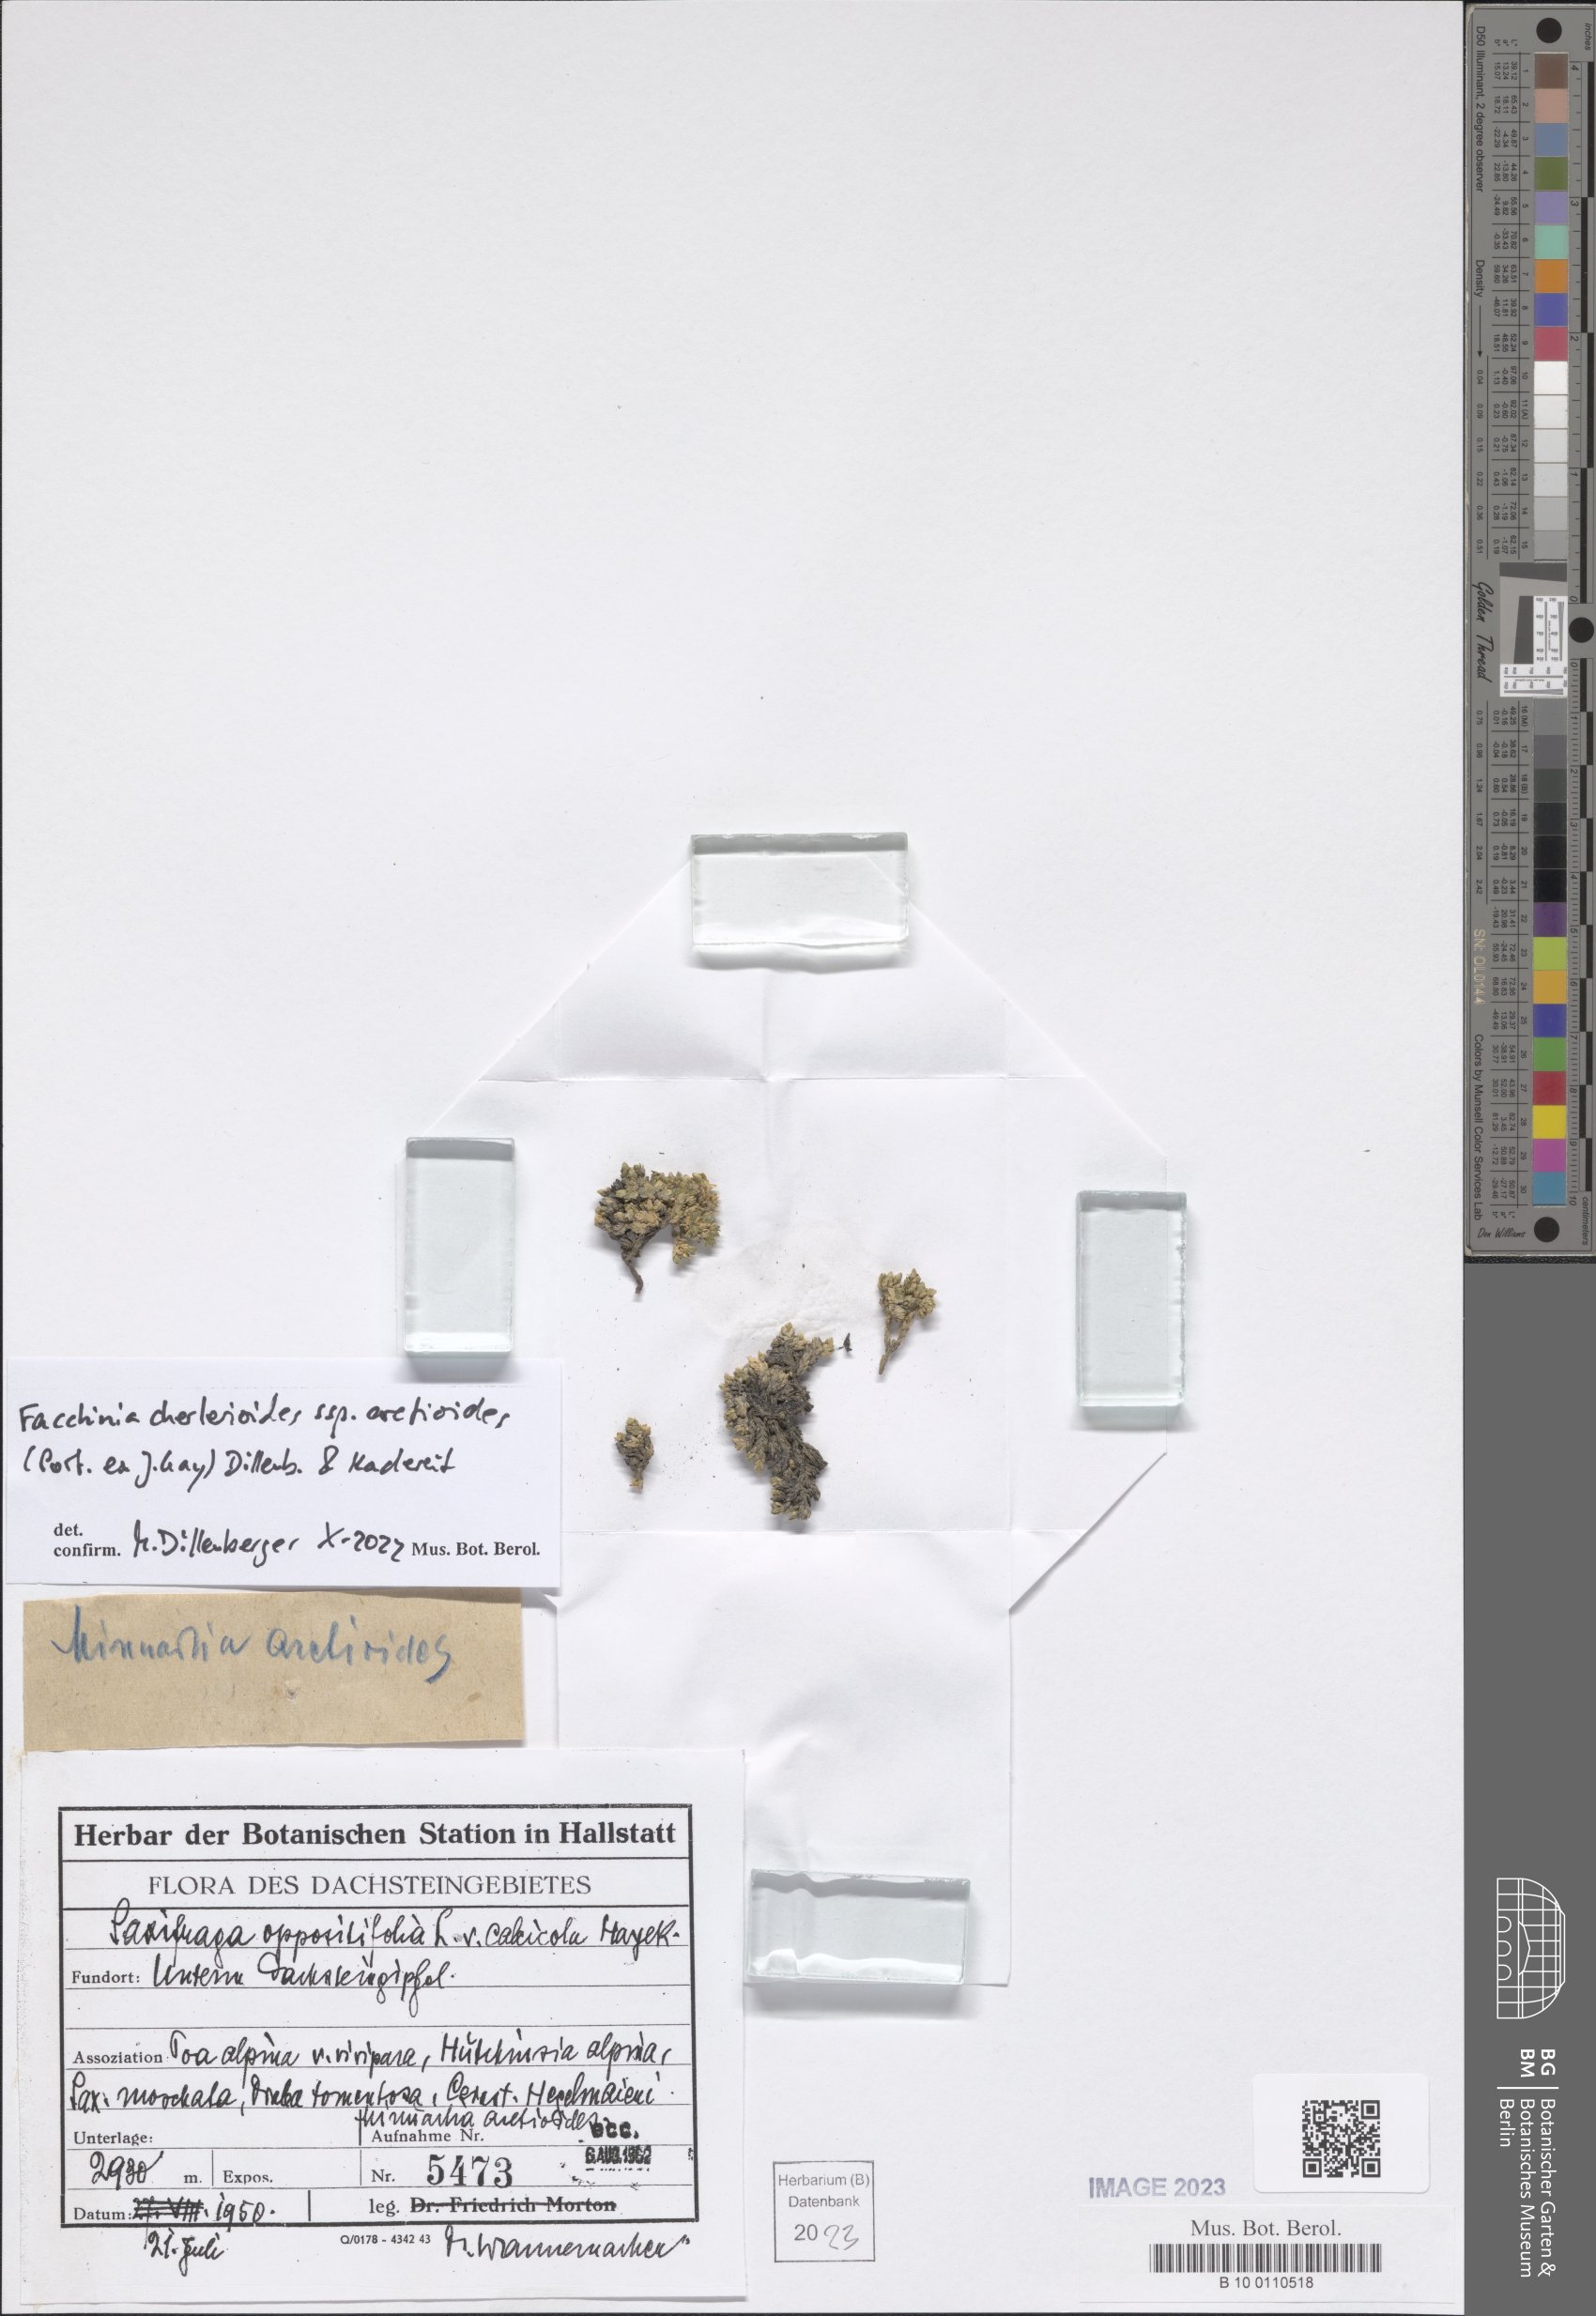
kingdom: Plantae
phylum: Tracheophyta
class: Magnoliopsida
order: Caryophyllales
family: Caryophyllaceae
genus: Facchinia
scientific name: Facchinia cherlerioides
